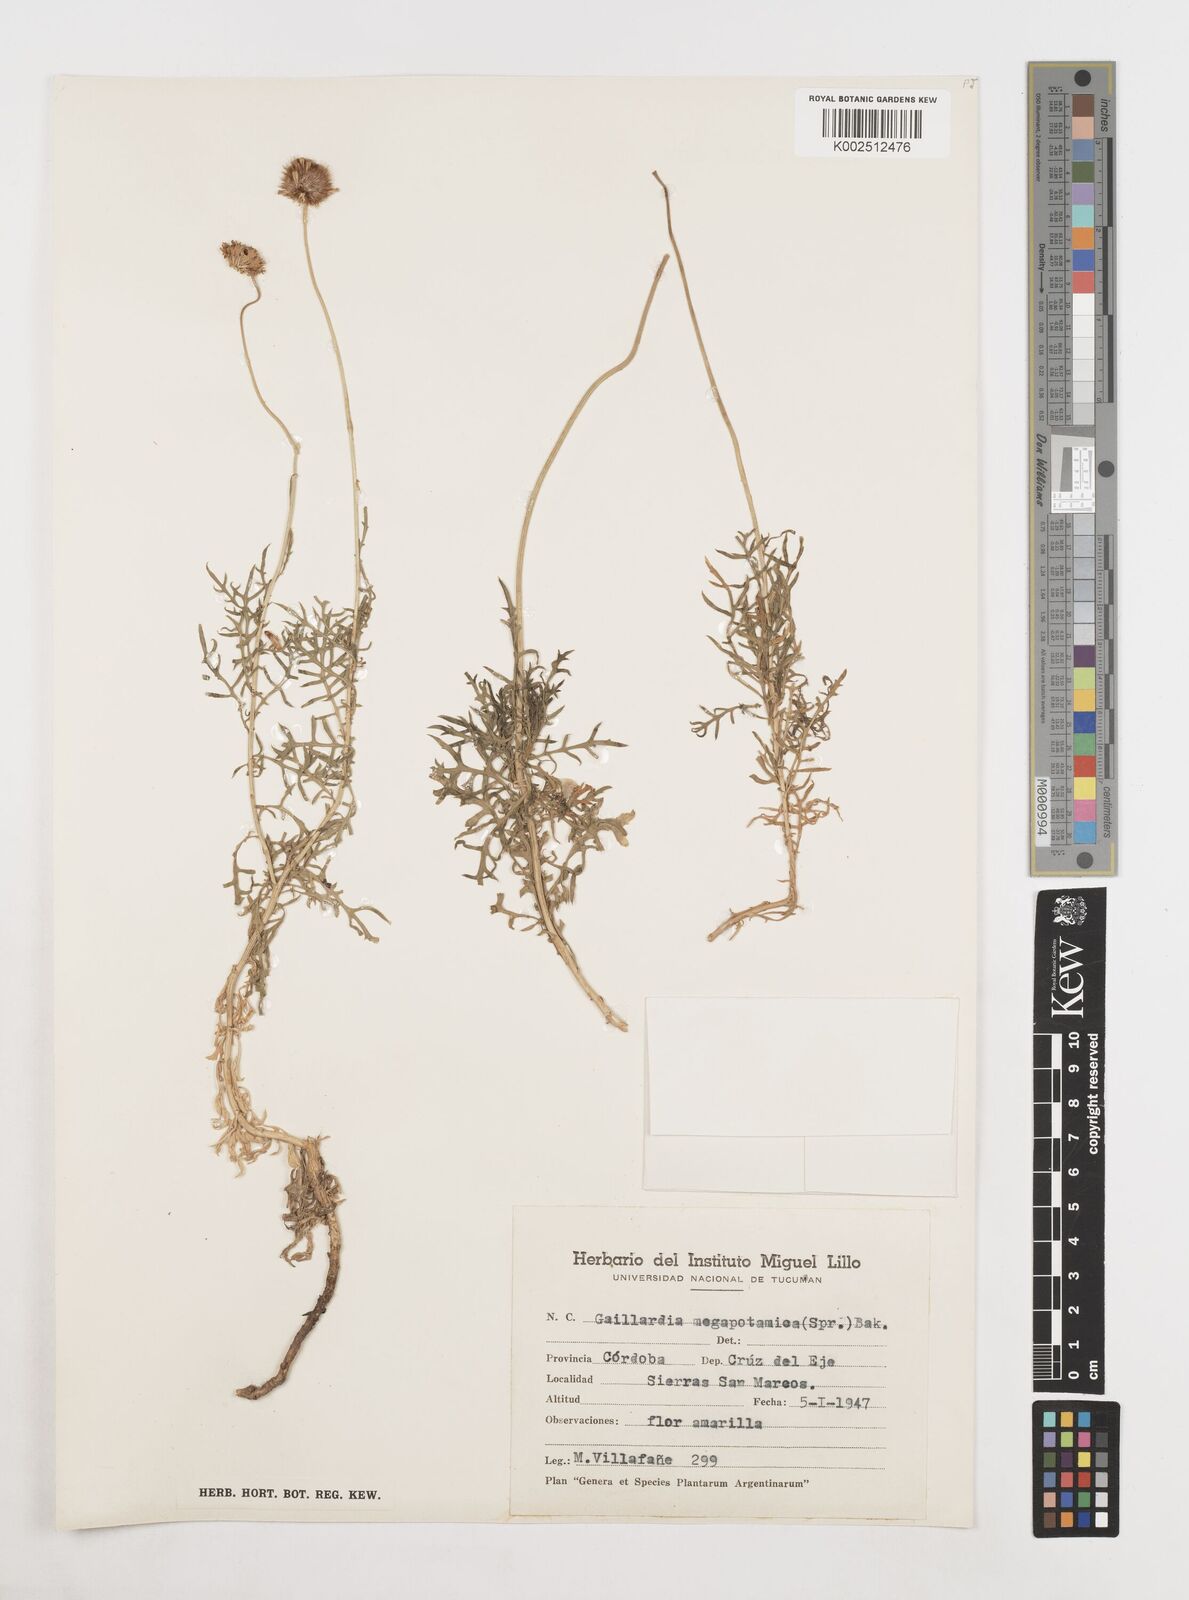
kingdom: Plantae
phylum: Tracheophyta
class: Magnoliopsida
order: Asterales
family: Asteraceae
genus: Gaillardia
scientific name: Gaillardia megapotamica
